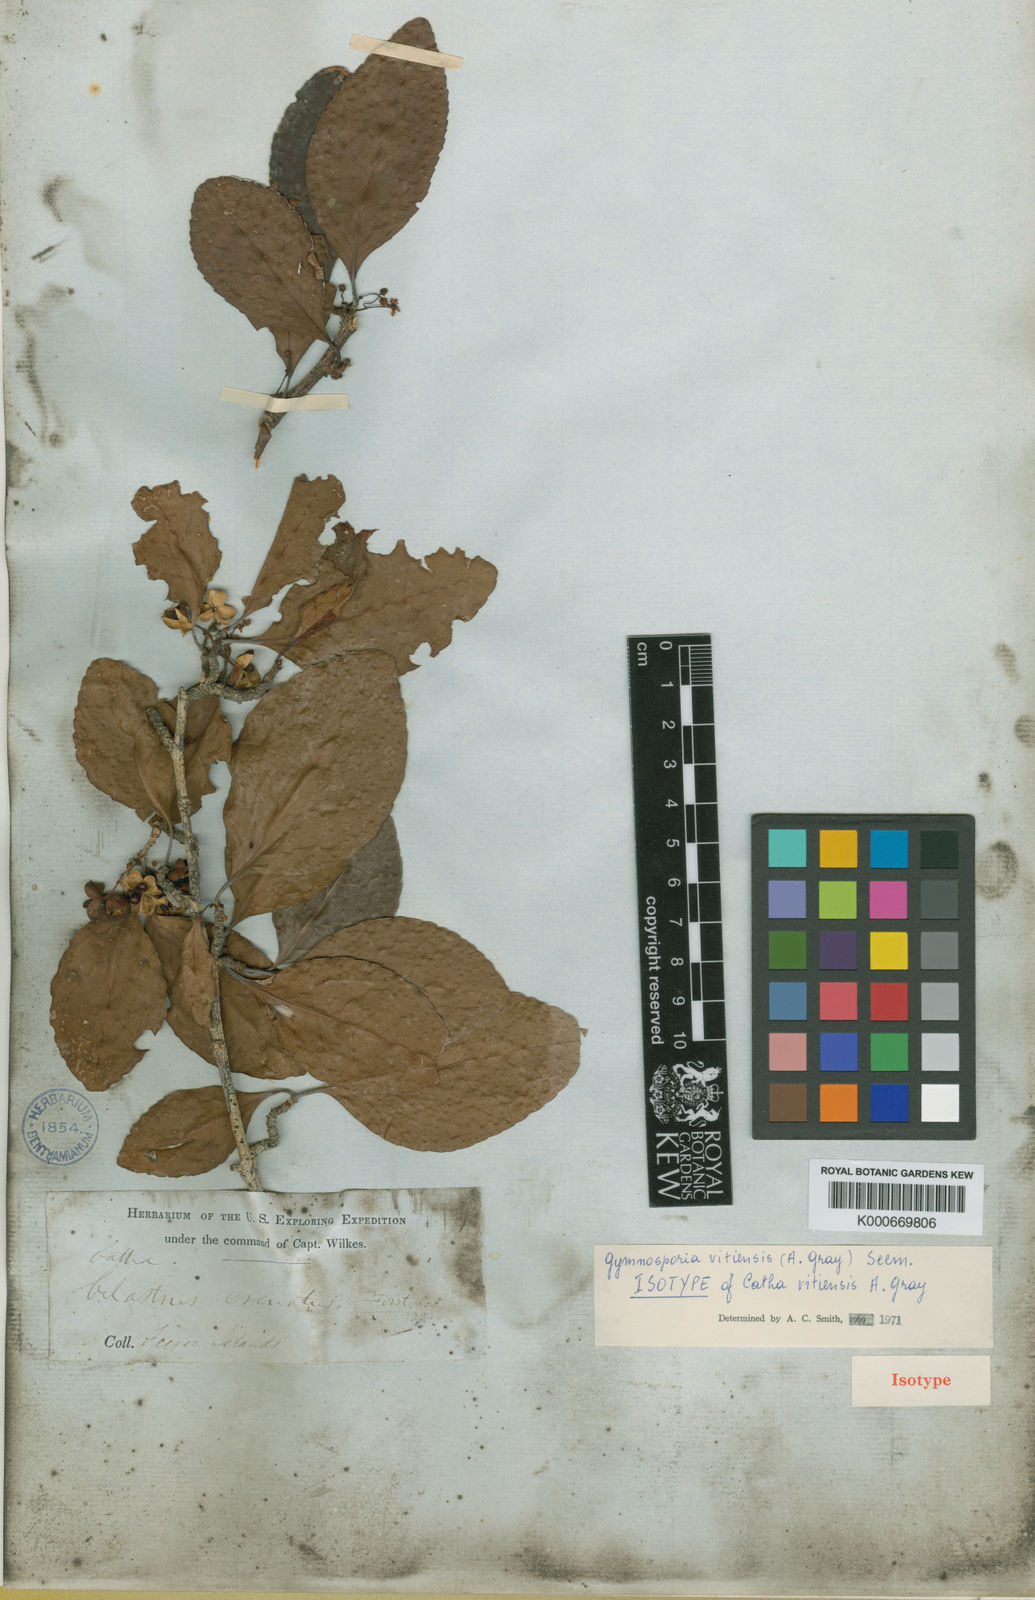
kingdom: Plantae
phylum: Tracheophyta
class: Magnoliopsida
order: Celastrales
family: Celastraceae
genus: Gymnosporia
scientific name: Gymnosporia vitiensis
